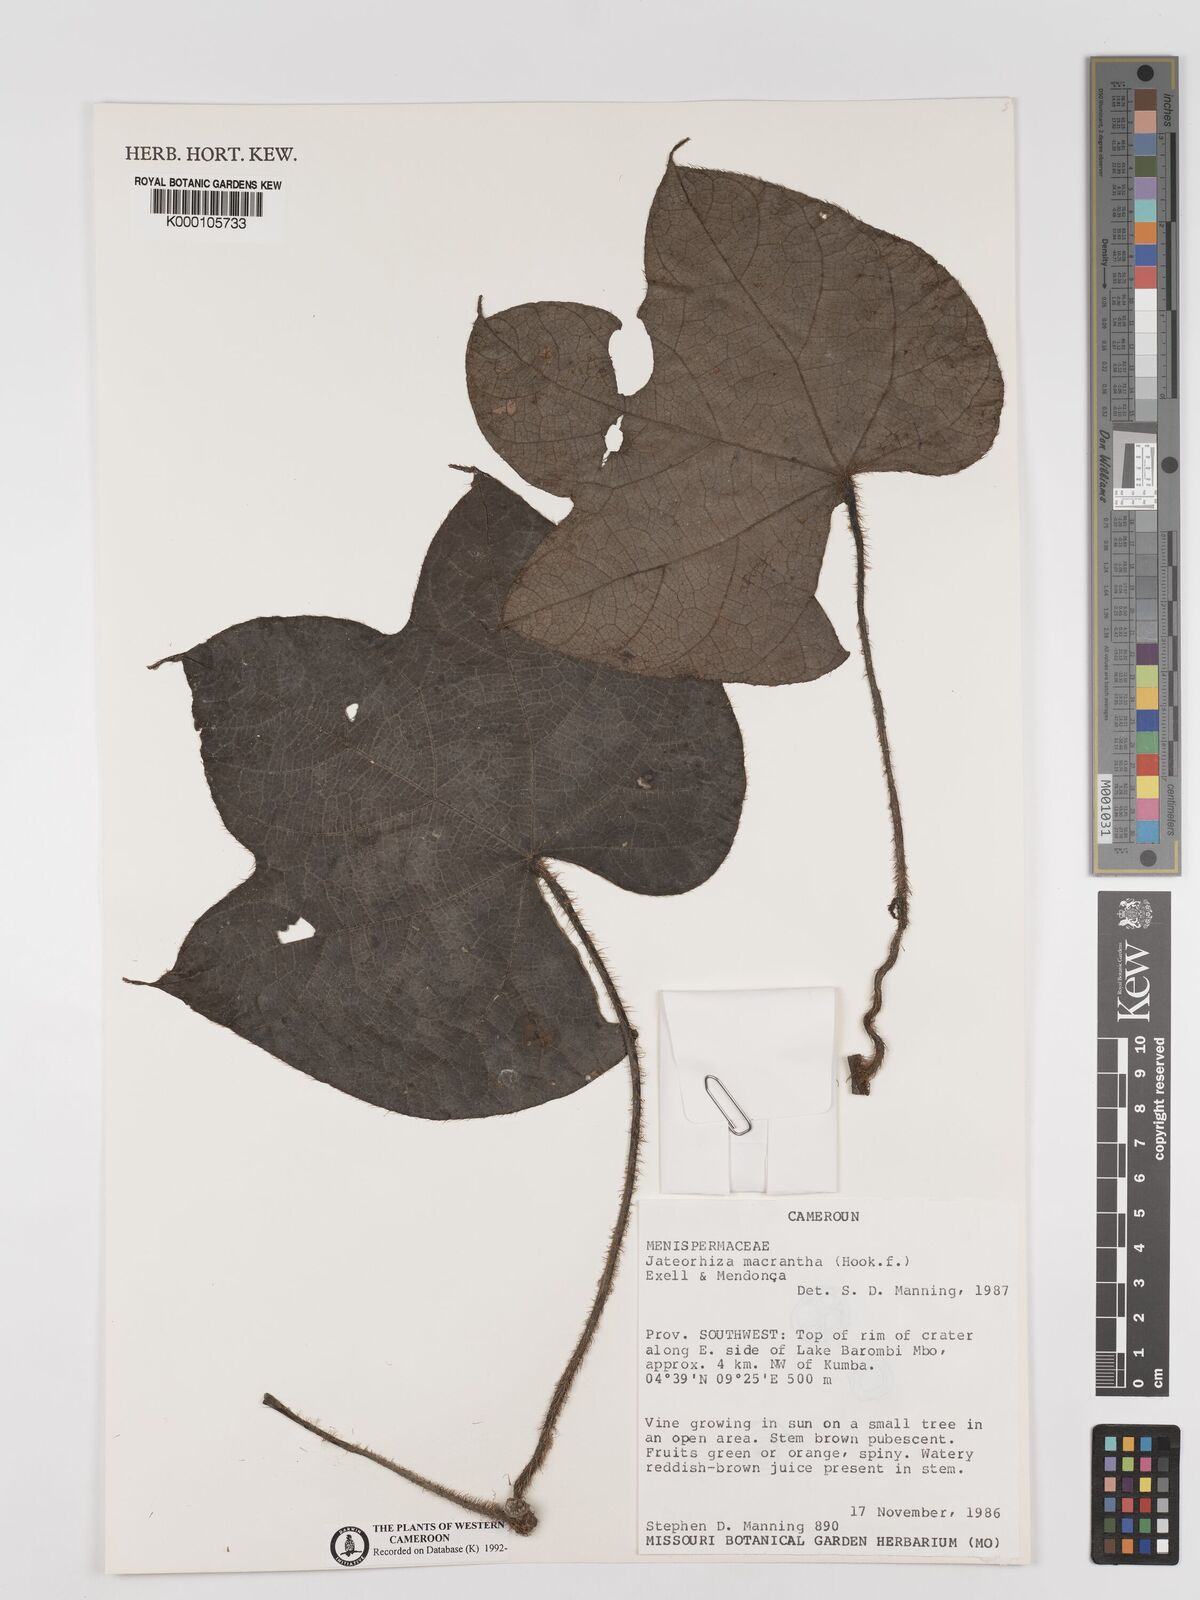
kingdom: Plantae
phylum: Tracheophyta
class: Magnoliopsida
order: Ranunculales
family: Menispermaceae
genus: Jateorhiza
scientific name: Jateorhiza
